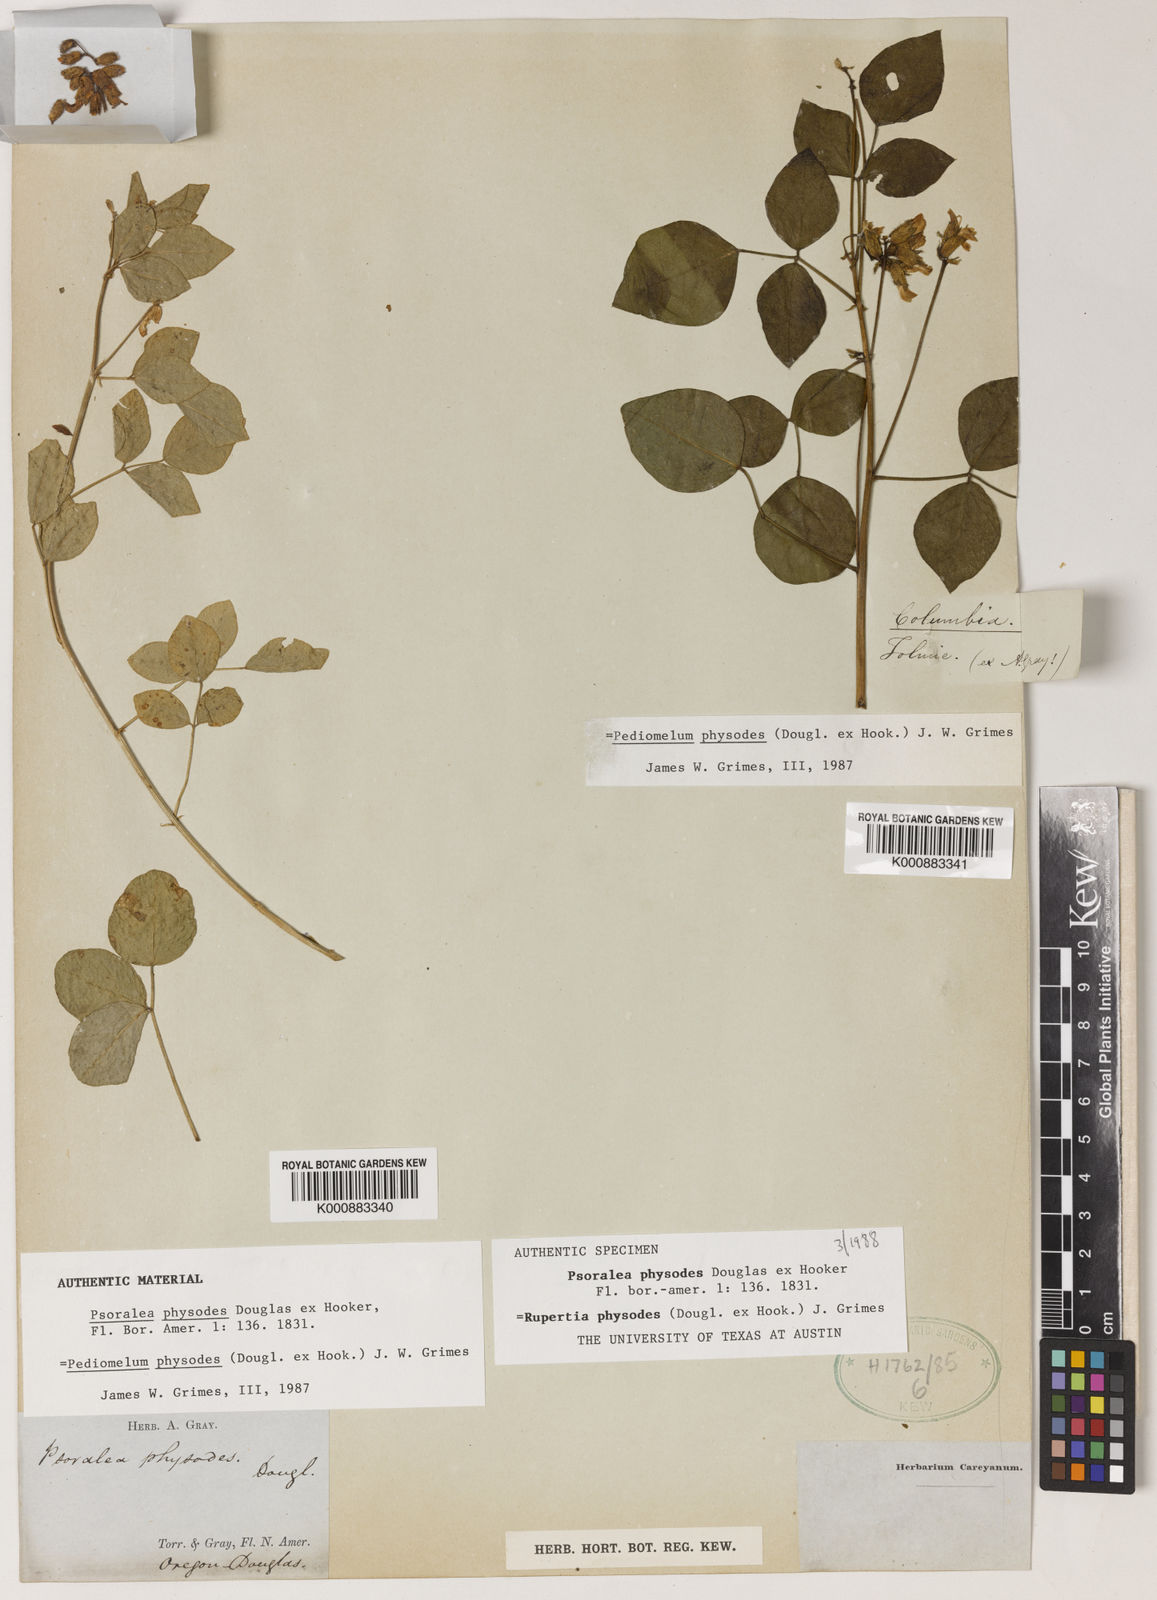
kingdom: Plantae
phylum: Tracheophyta
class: Magnoliopsida
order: Fabales
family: Fabaceae
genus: Rupertia
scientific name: Rupertia physodes
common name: California-tea
